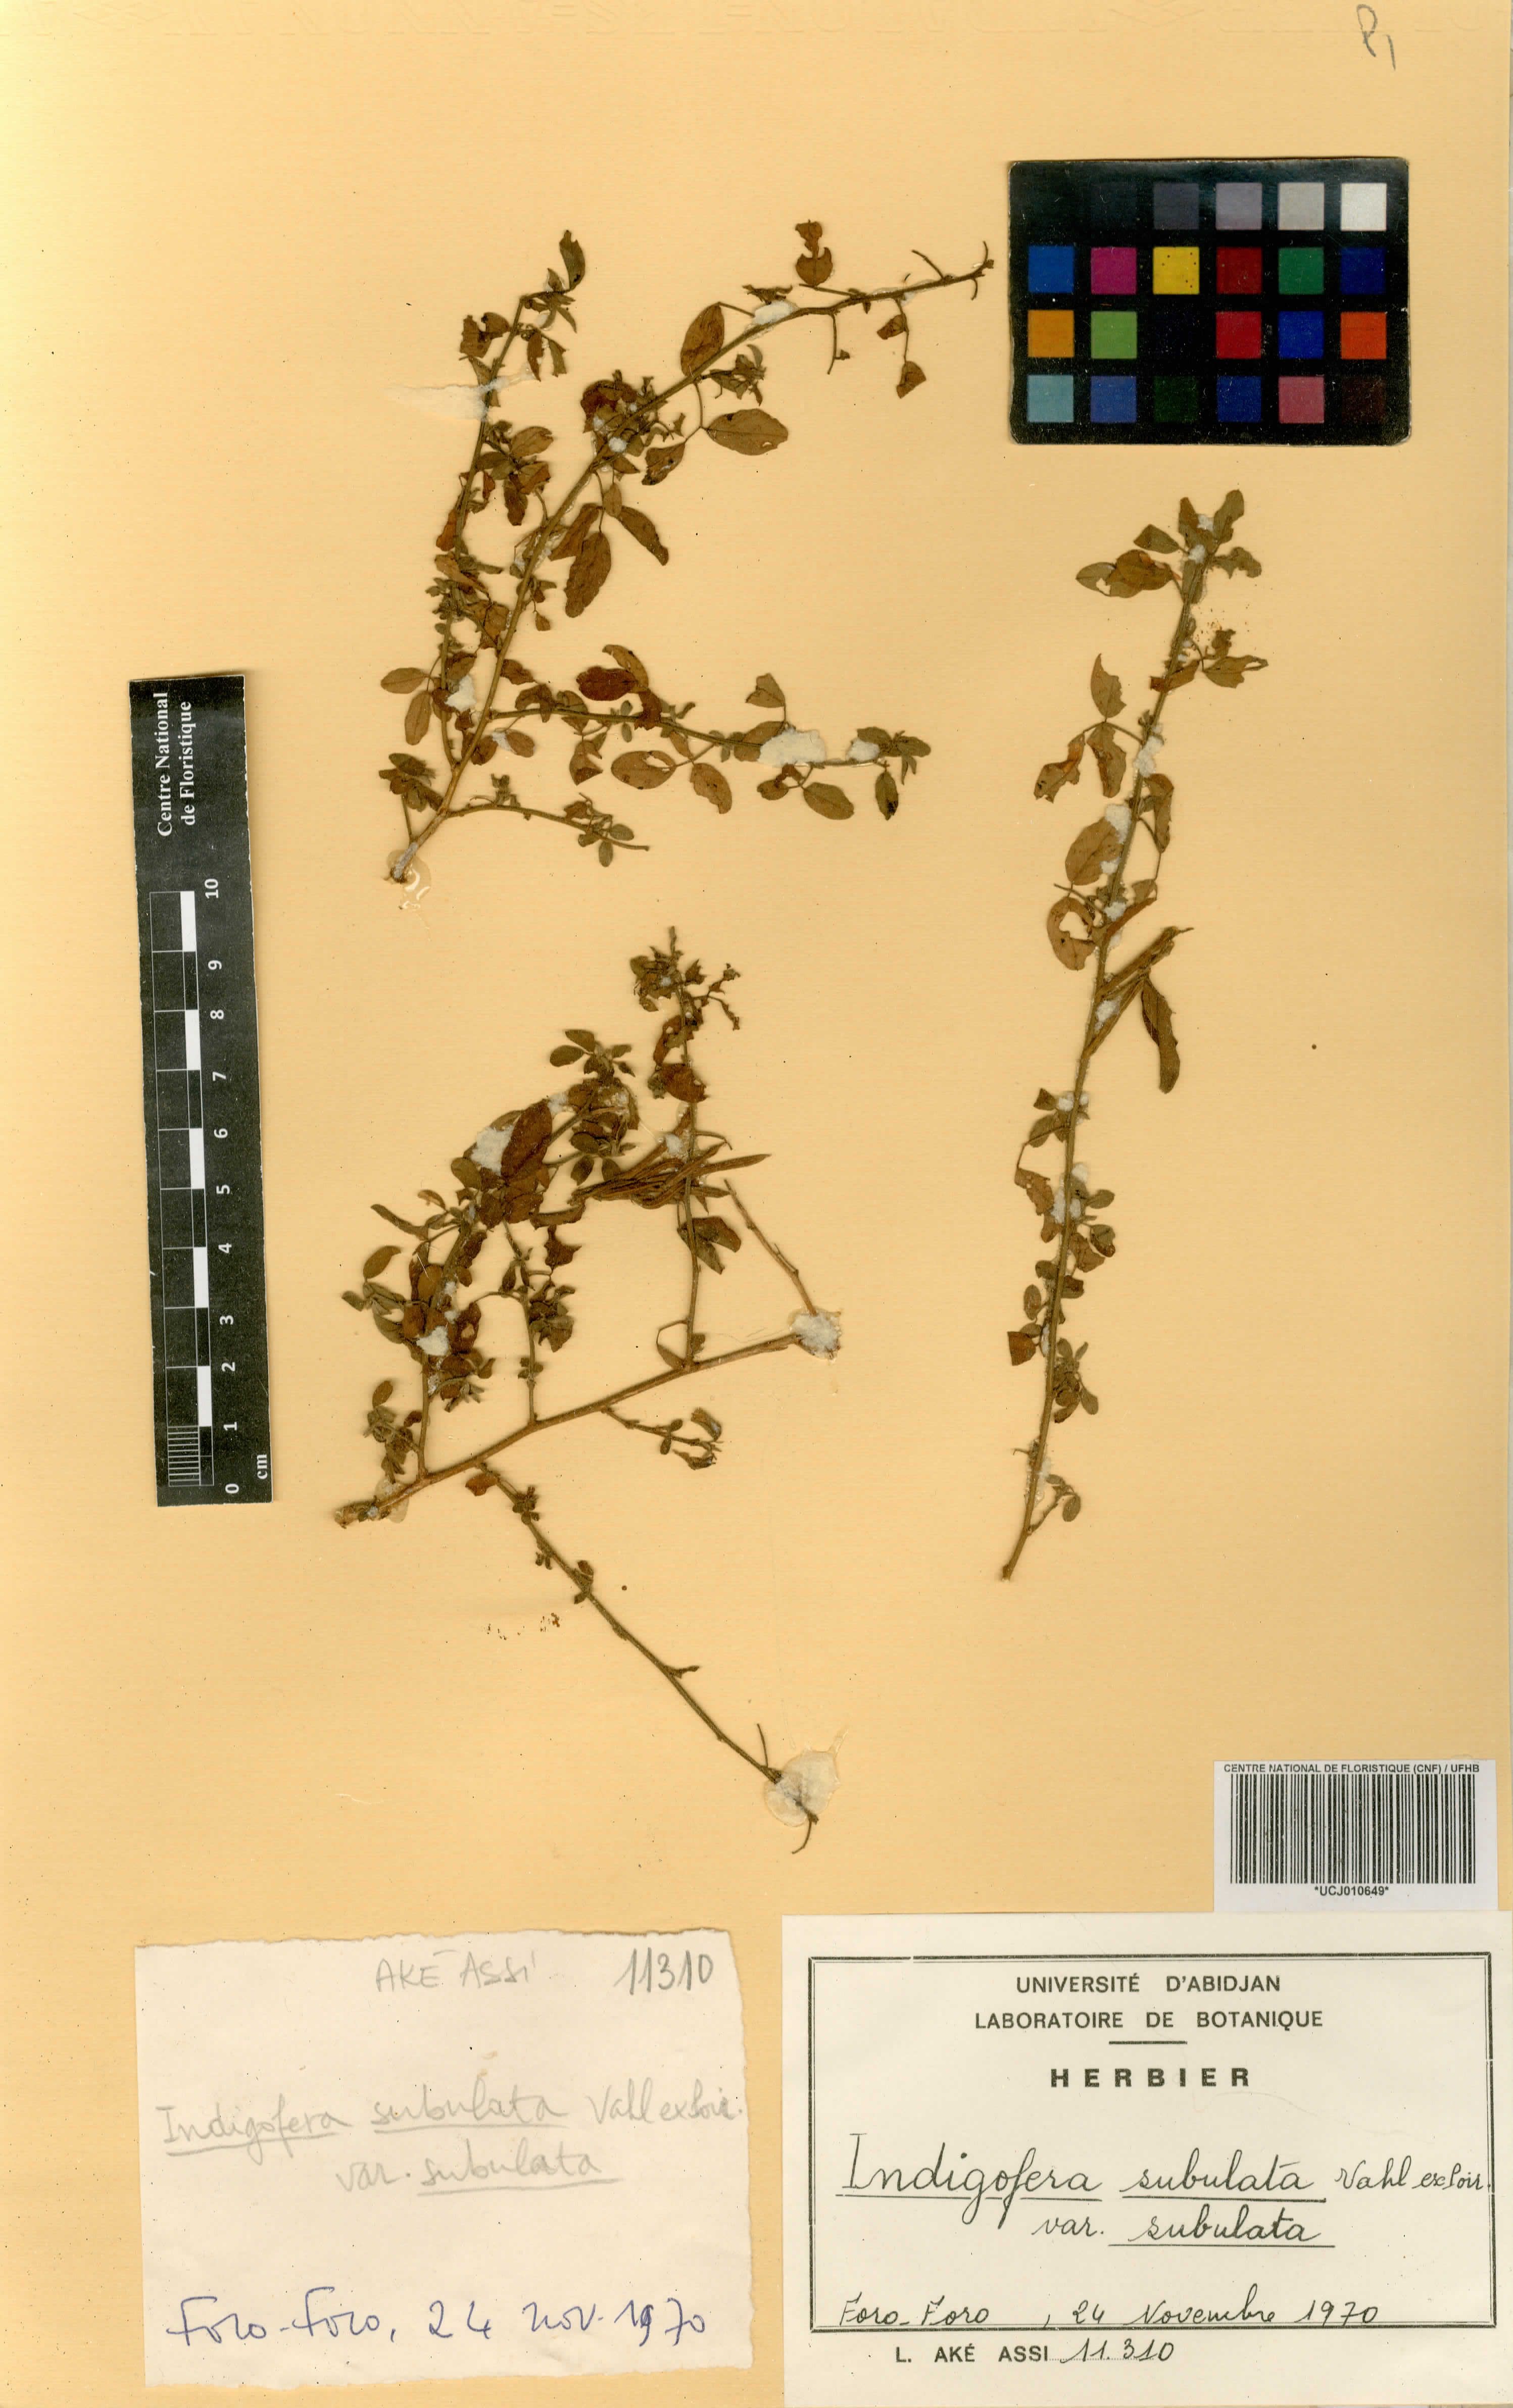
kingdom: Plantae
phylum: Tracheophyta
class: Magnoliopsida
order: Fabales
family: Fabaceae
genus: Indigofera
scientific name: Indigofera suffruticosa
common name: Anil de pasto
